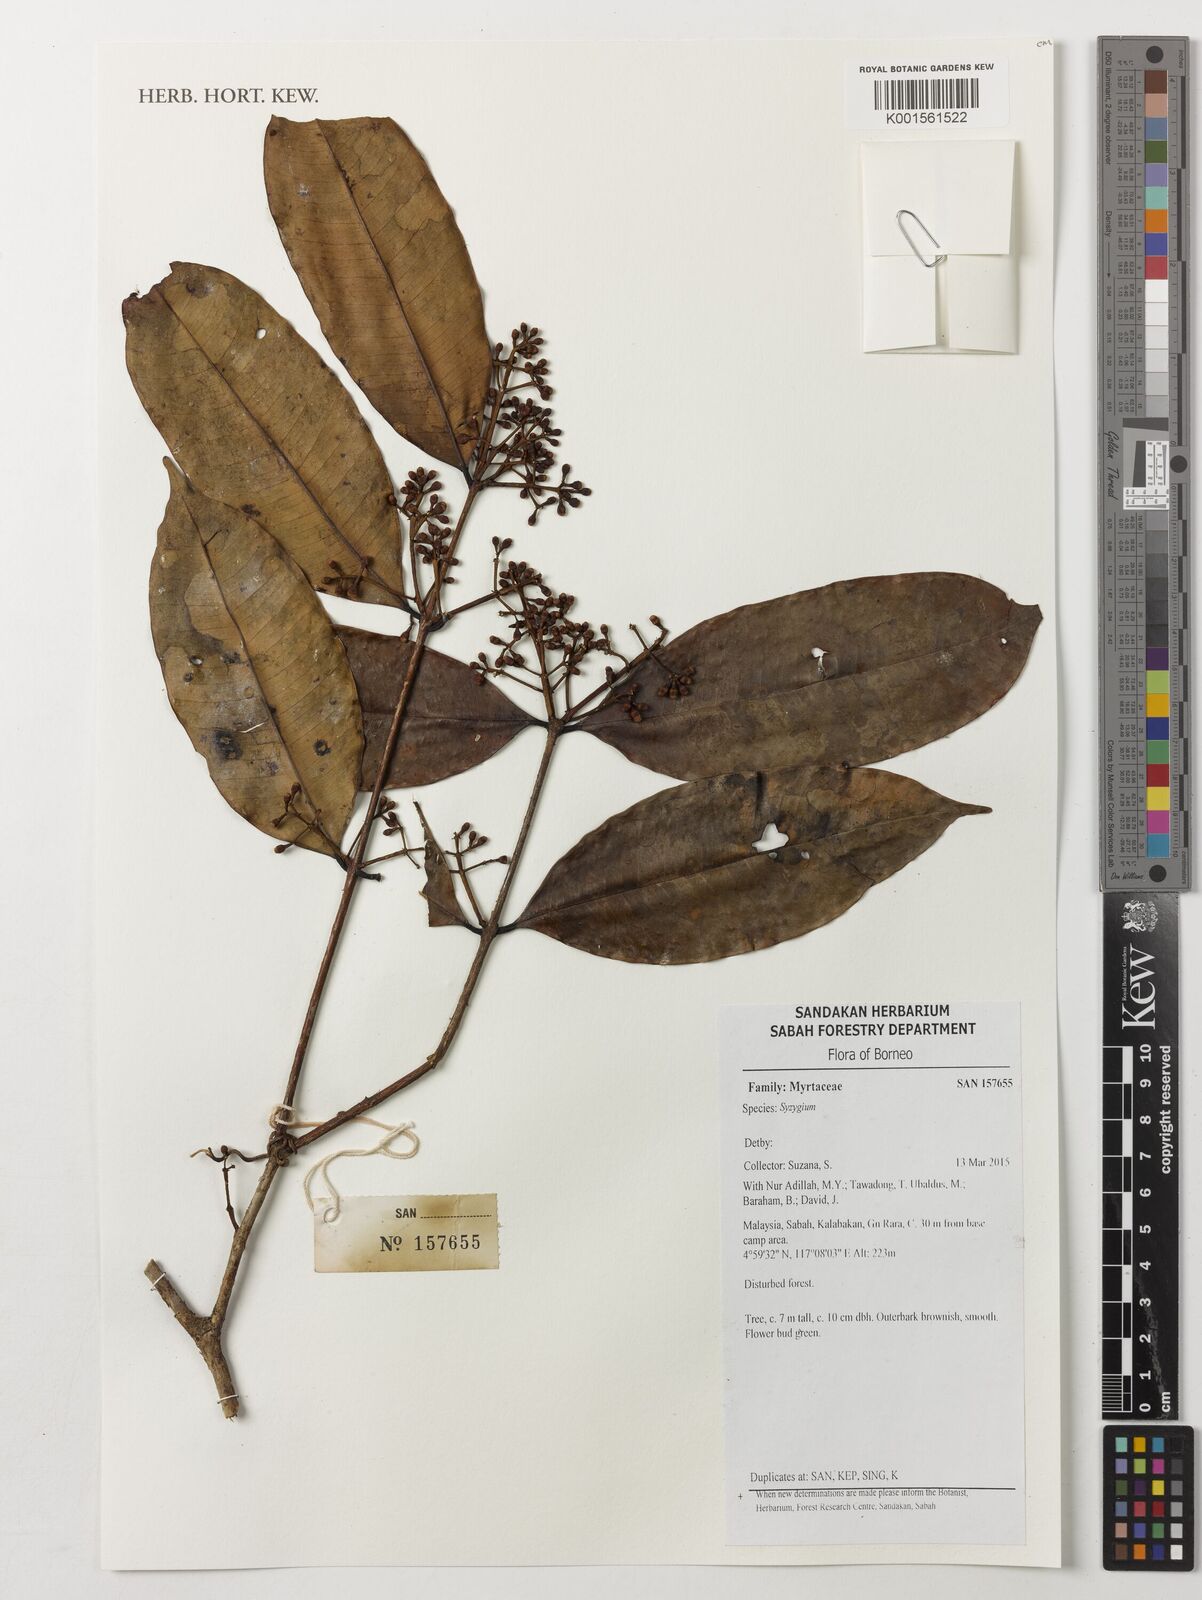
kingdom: Plantae
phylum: Tracheophyta
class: Magnoliopsida
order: Myrtales
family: Myrtaceae
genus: Syzygium
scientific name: Syzygium
